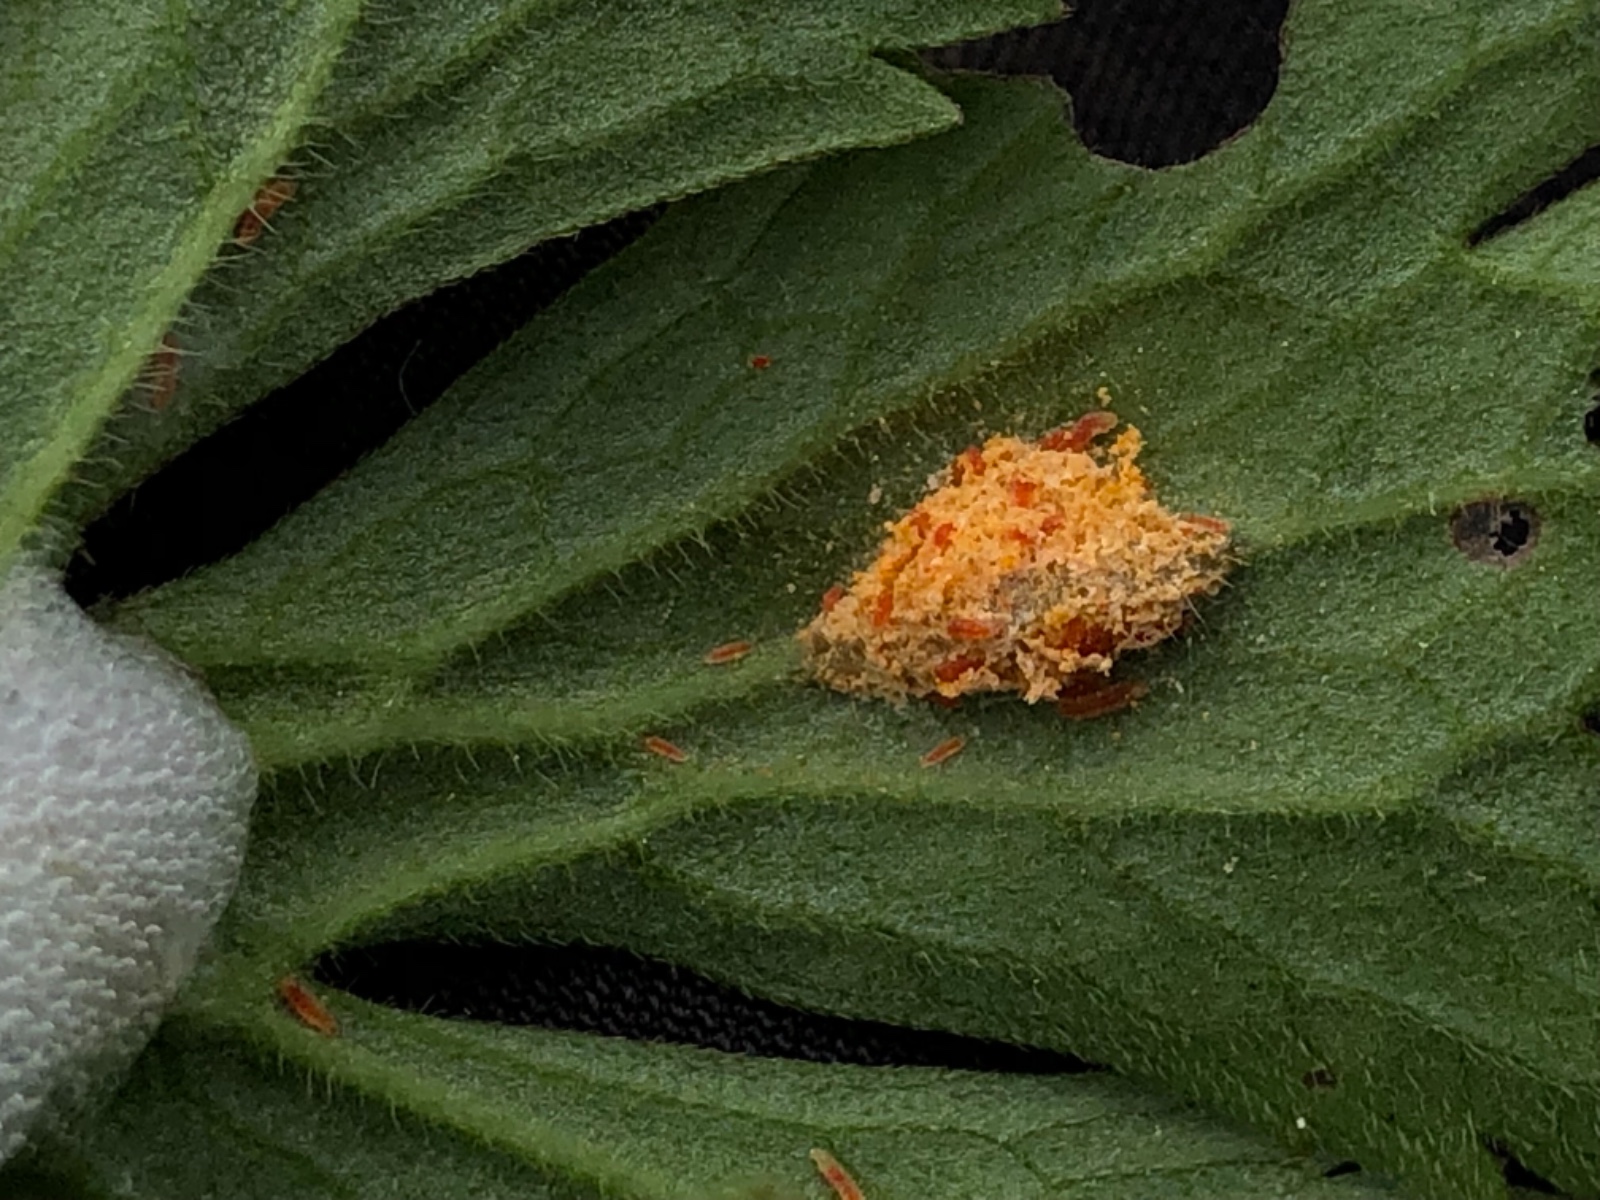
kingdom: Fungi
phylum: Basidiomycota
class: Pucciniomycetes
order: Pucciniales
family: Pucciniaceae
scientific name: Pucciniaceae
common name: rustsvampfamilien
